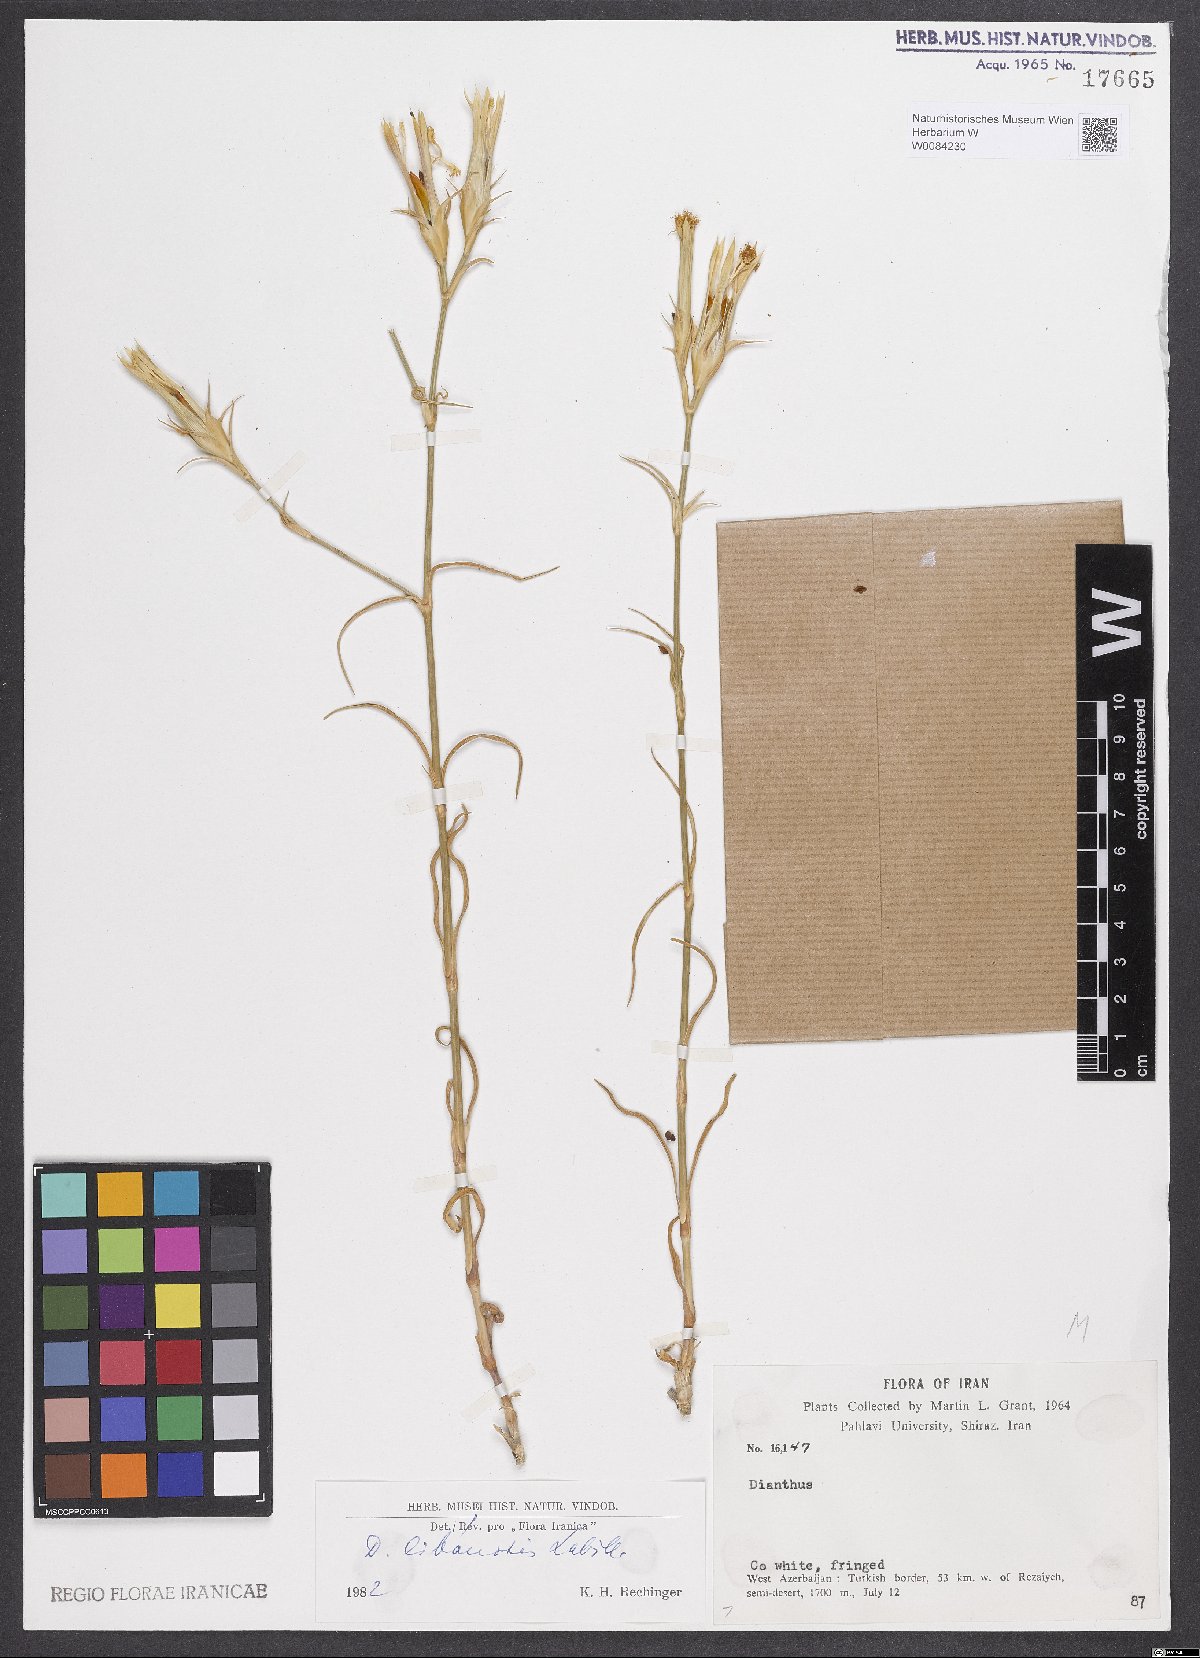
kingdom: Plantae
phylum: Tracheophyta
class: Magnoliopsida
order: Caryophyllales
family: Caryophyllaceae
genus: Dianthus
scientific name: Dianthus libanotis
